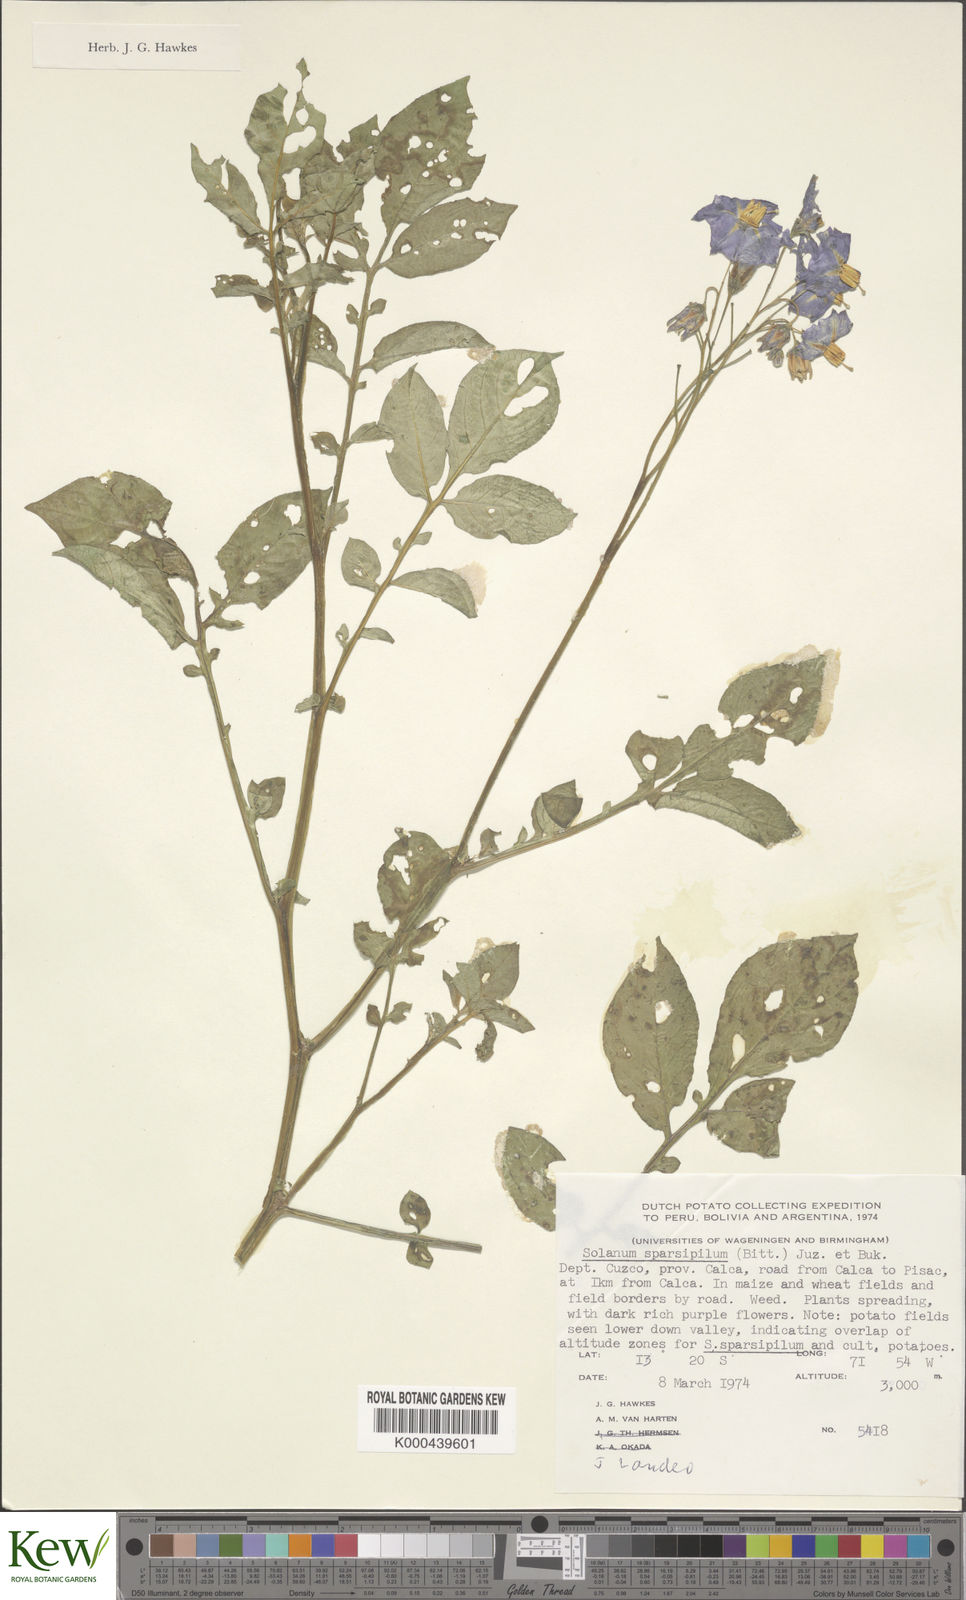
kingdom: Plantae
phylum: Tracheophyta
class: Magnoliopsida
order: Solanales
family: Solanaceae
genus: Solanum
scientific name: Solanum brevicaule
